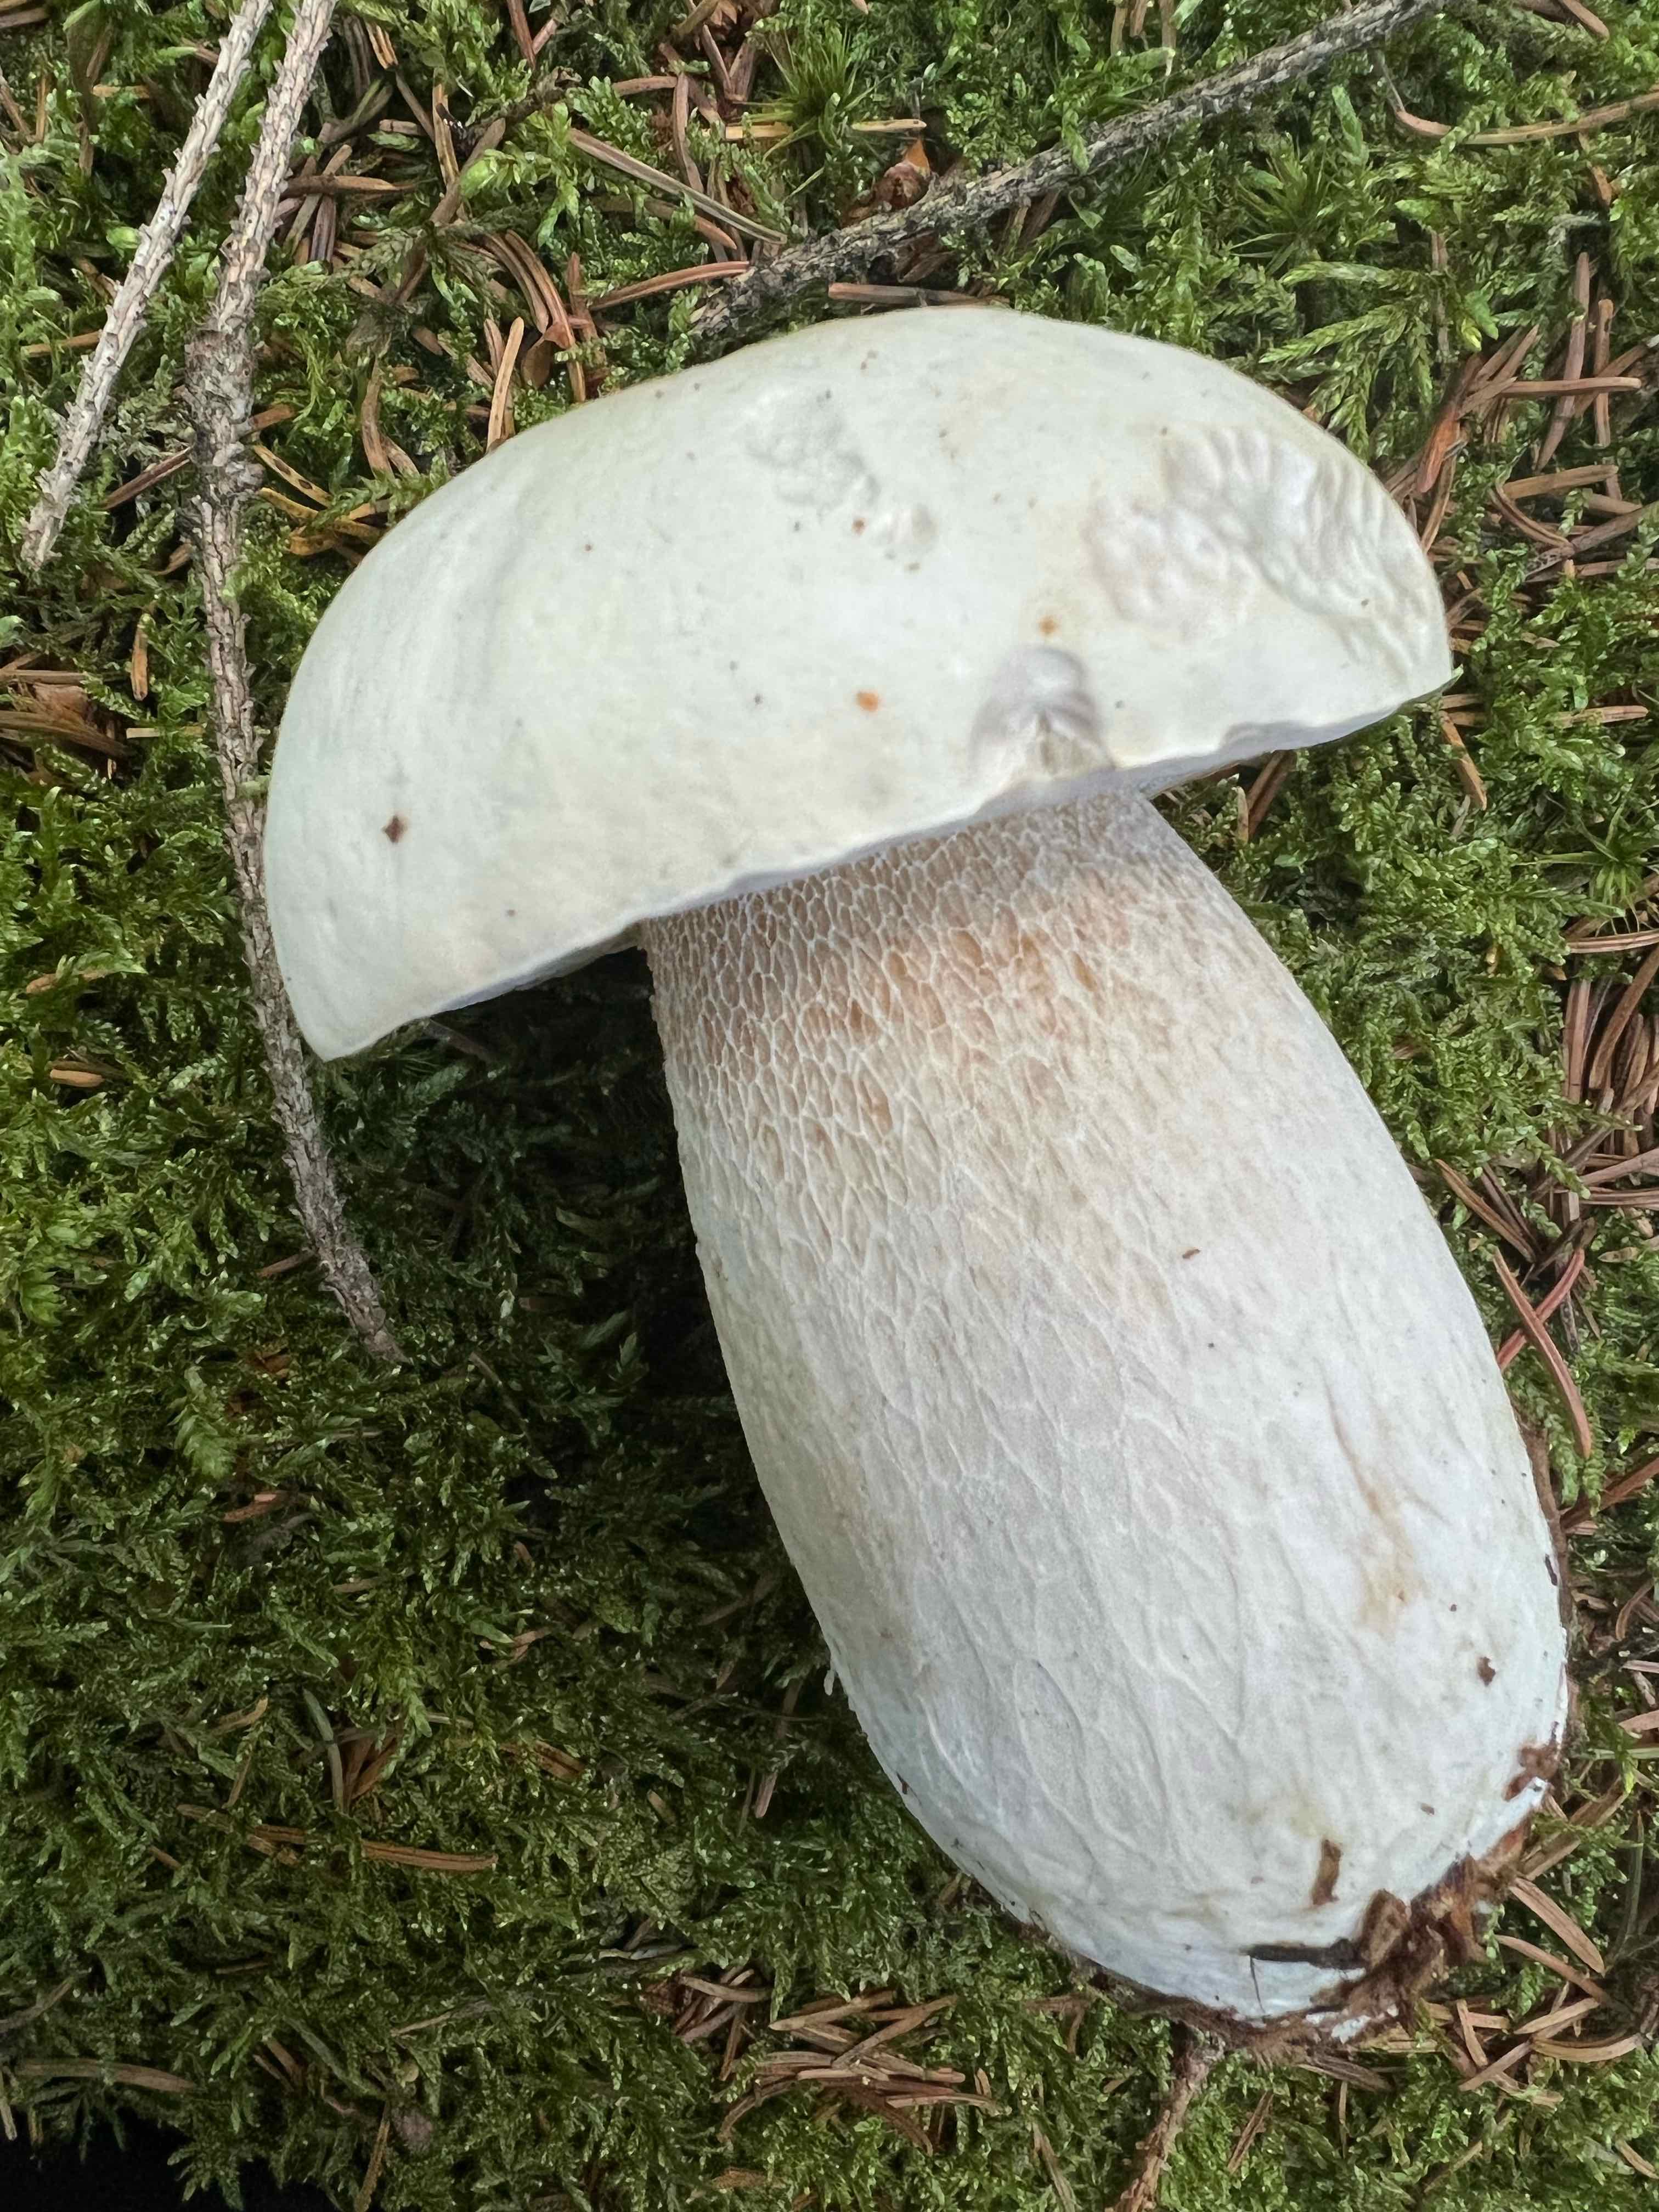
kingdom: Fungi
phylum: Basidiomycota
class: Agaricomycetes
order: Boletales
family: Boletaceae
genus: Boletus
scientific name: Boletus edulis
